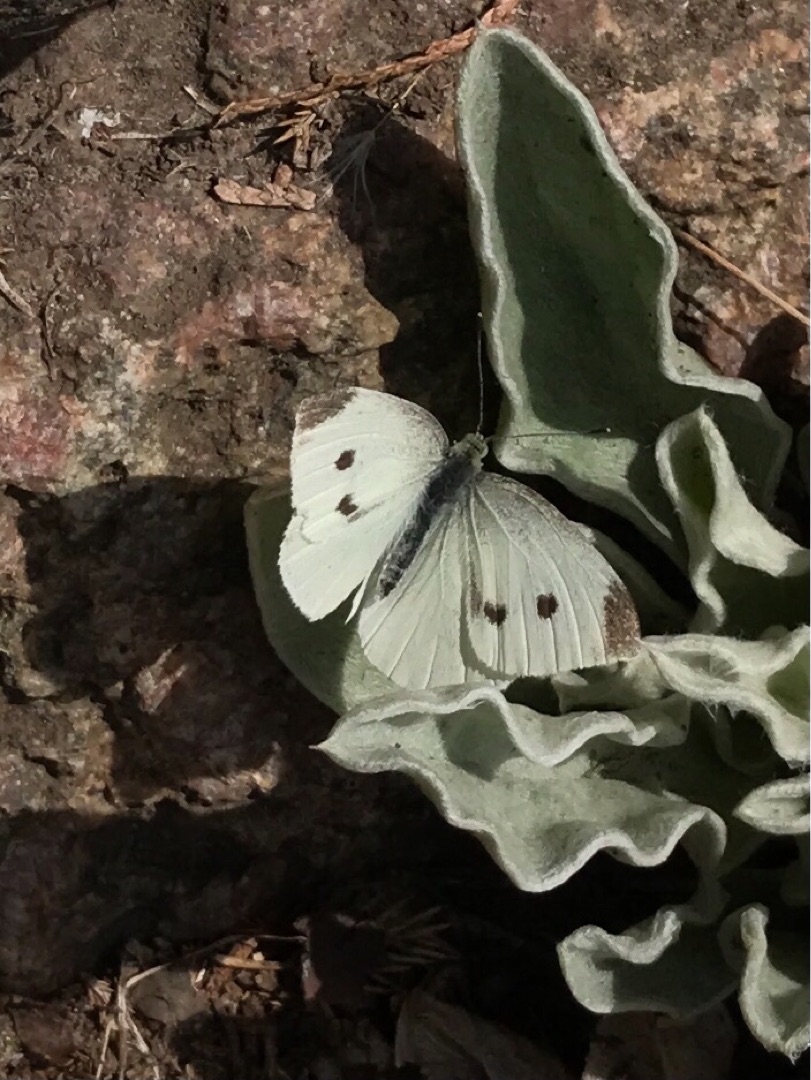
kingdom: Animalia
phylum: Arthropoda
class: Insecta
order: Lepidoptera
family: Pieridae
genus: Pieris
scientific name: Pieris rapae
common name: Lille kålsommerfugl
